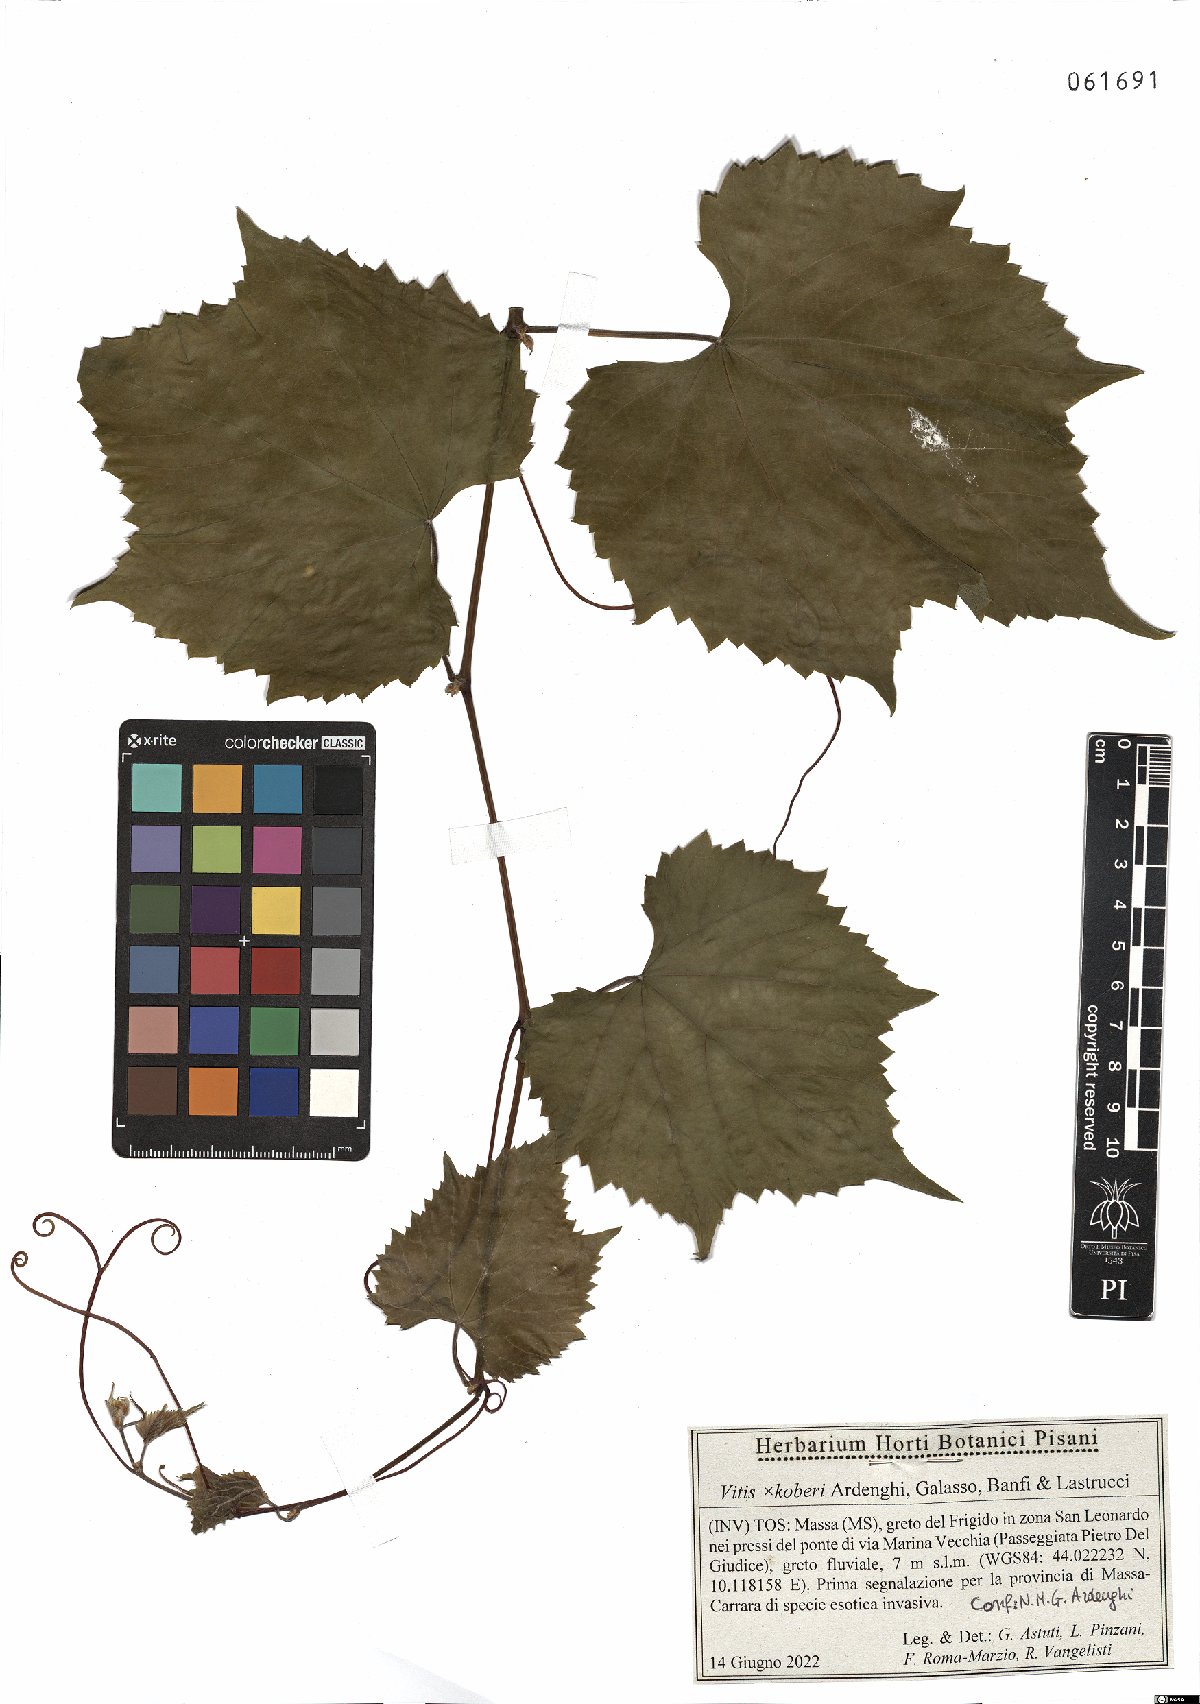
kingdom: Plantae
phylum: Tracheophyta
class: Magnoliopsida
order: Vitales
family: Vitaceae
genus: Vitis
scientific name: Vitis koberi
